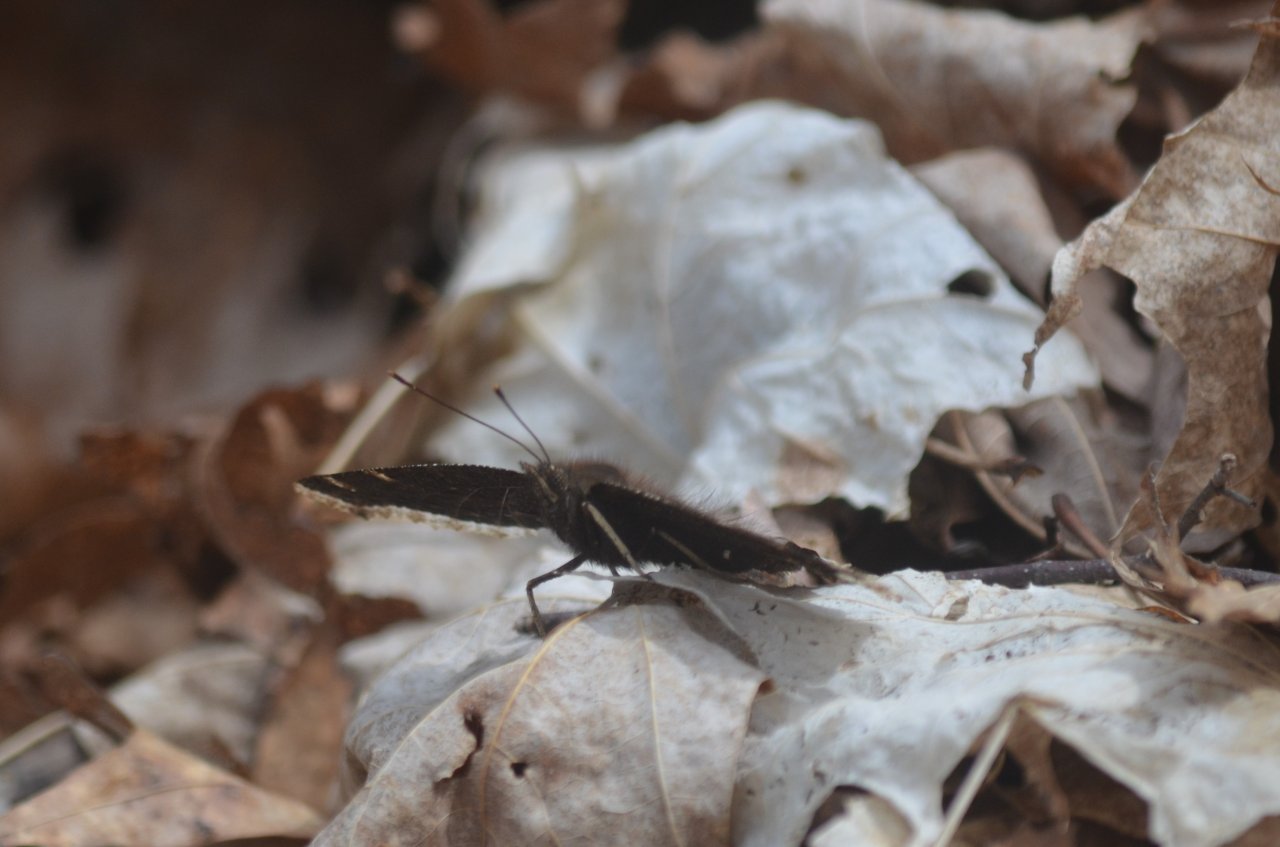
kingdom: Animalia
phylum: Arthropoda
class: Insecta
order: Lepidoptera
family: Nymphalidae
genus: Nymphalis
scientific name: Nymphalis antiopa
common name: Mourning Cloak
